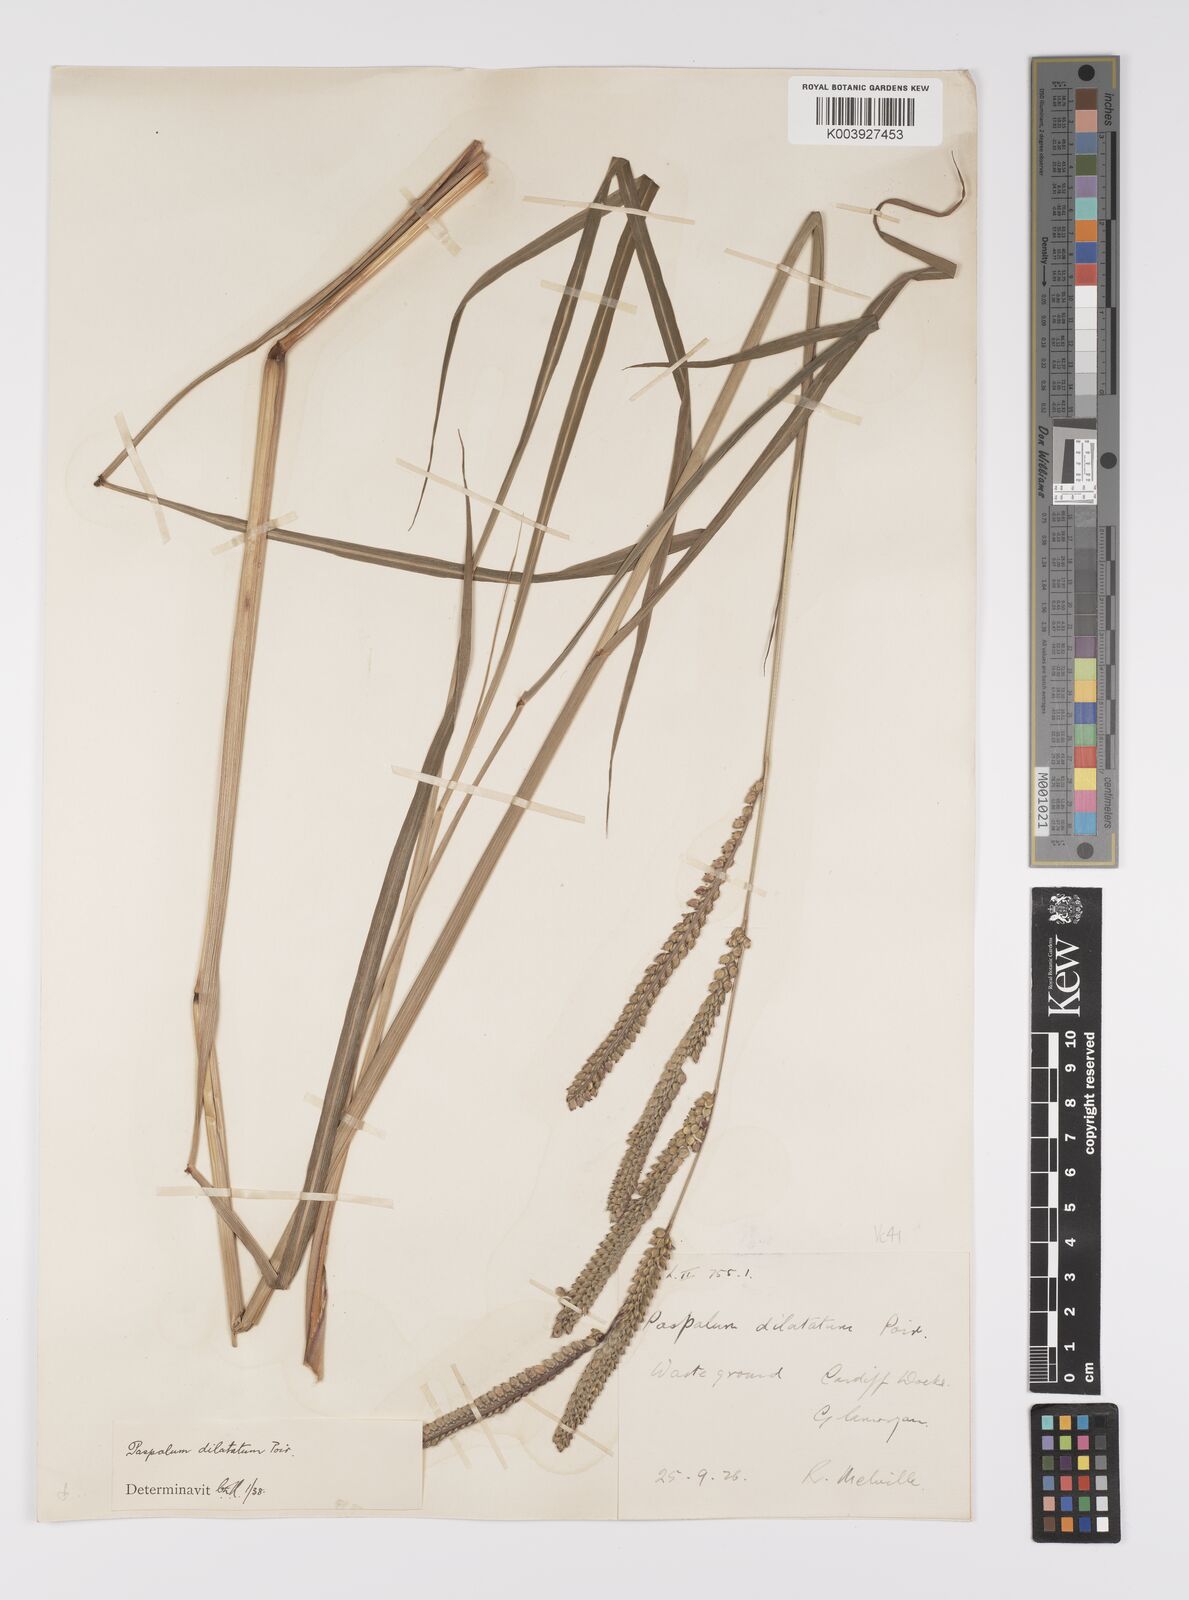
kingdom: Plantae
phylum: Tracheophyta
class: Liliopsida
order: Poales
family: Poaceae
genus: Paspalum
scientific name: Paspalum dilatatum
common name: Dallisgrass
